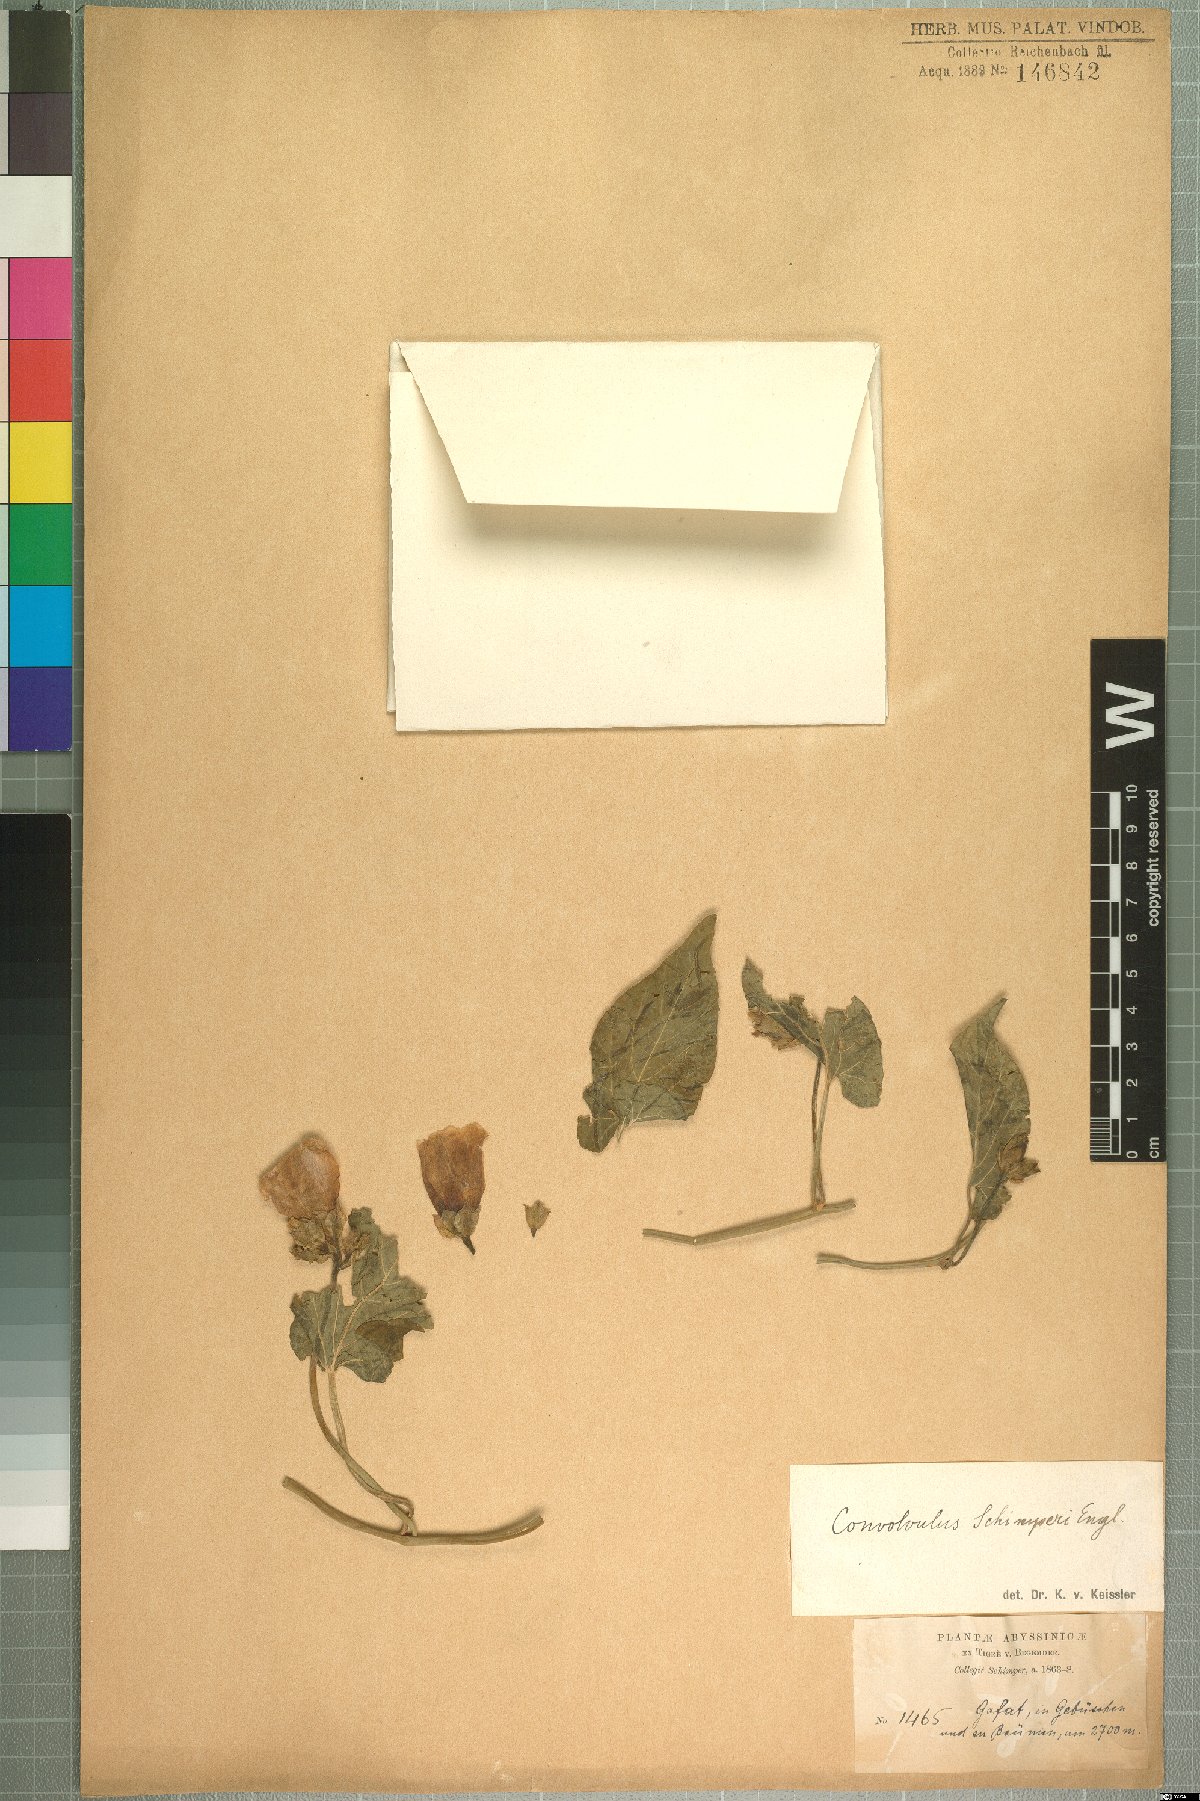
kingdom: Plantae
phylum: Tracheophyta
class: Magnoliopsida
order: Solanales
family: Convolvulaceae
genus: Convolvulus
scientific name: Convolvulus kilimandschari
